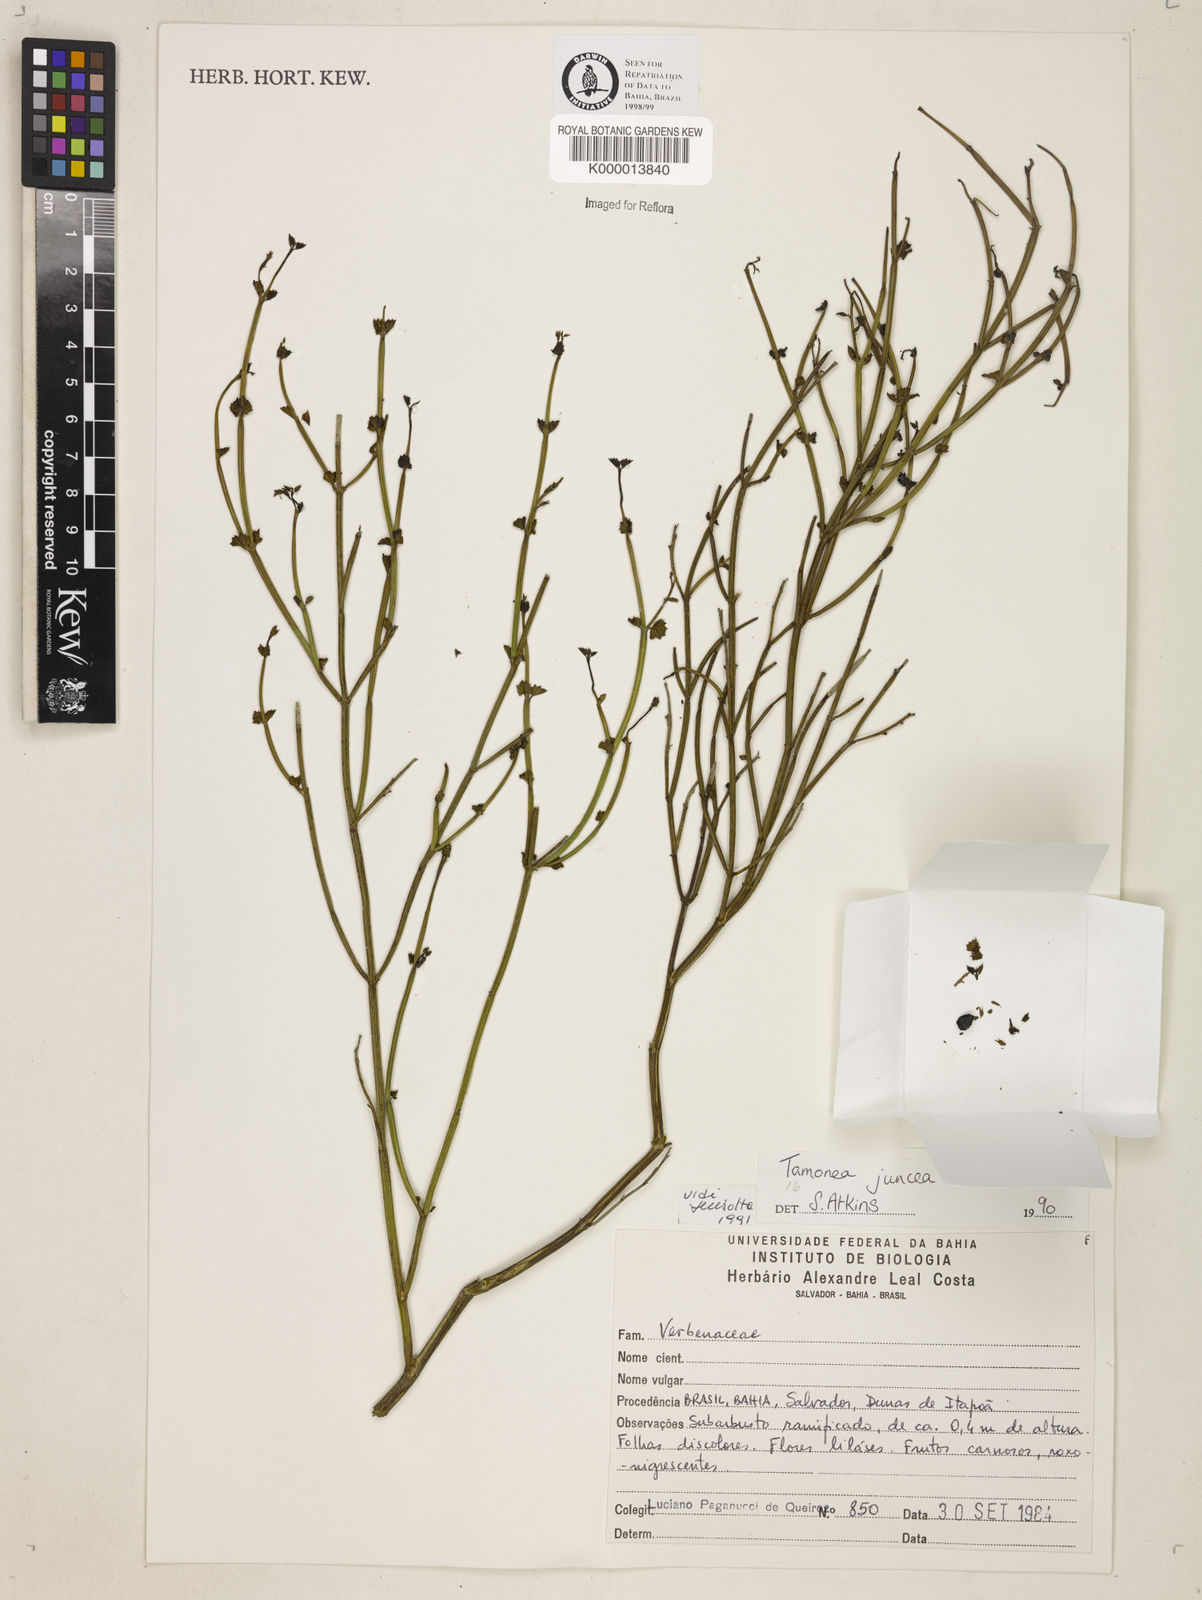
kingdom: Plantae
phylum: Tracheophyta
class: Magnoliopsida
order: Lamiales
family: Verbenaceae
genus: Tamonea
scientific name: Tamonea juncea
